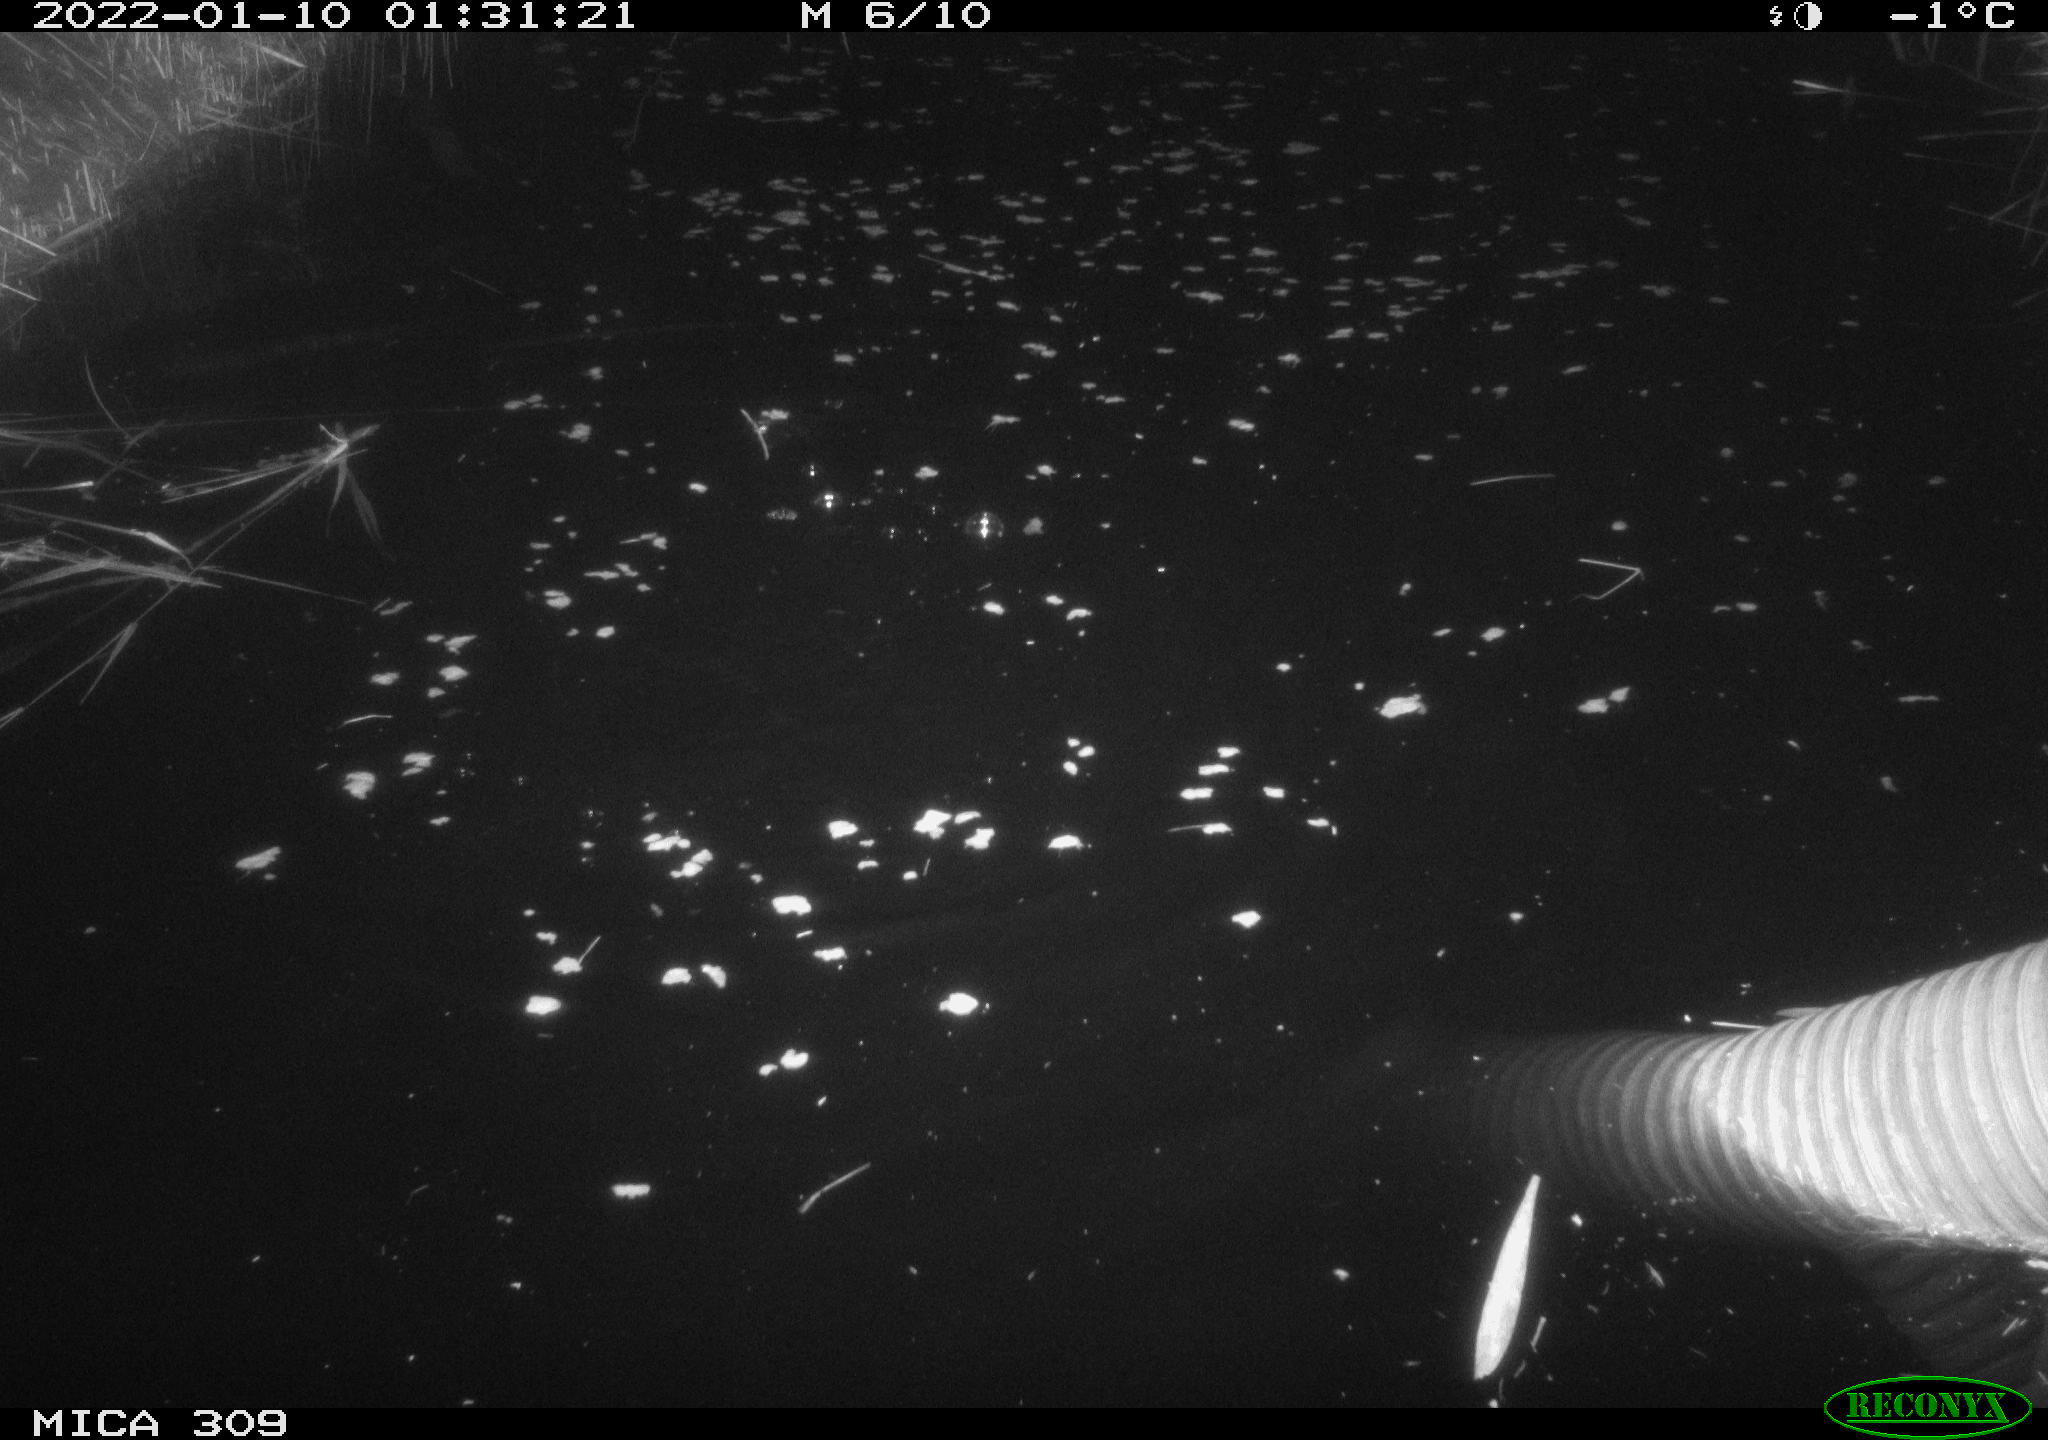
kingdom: Animalia
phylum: Chordata
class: Mammalia
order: Rodentia
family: Cricetidae
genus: Ondatra
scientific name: Ondatra zibethicus
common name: Muskrat
